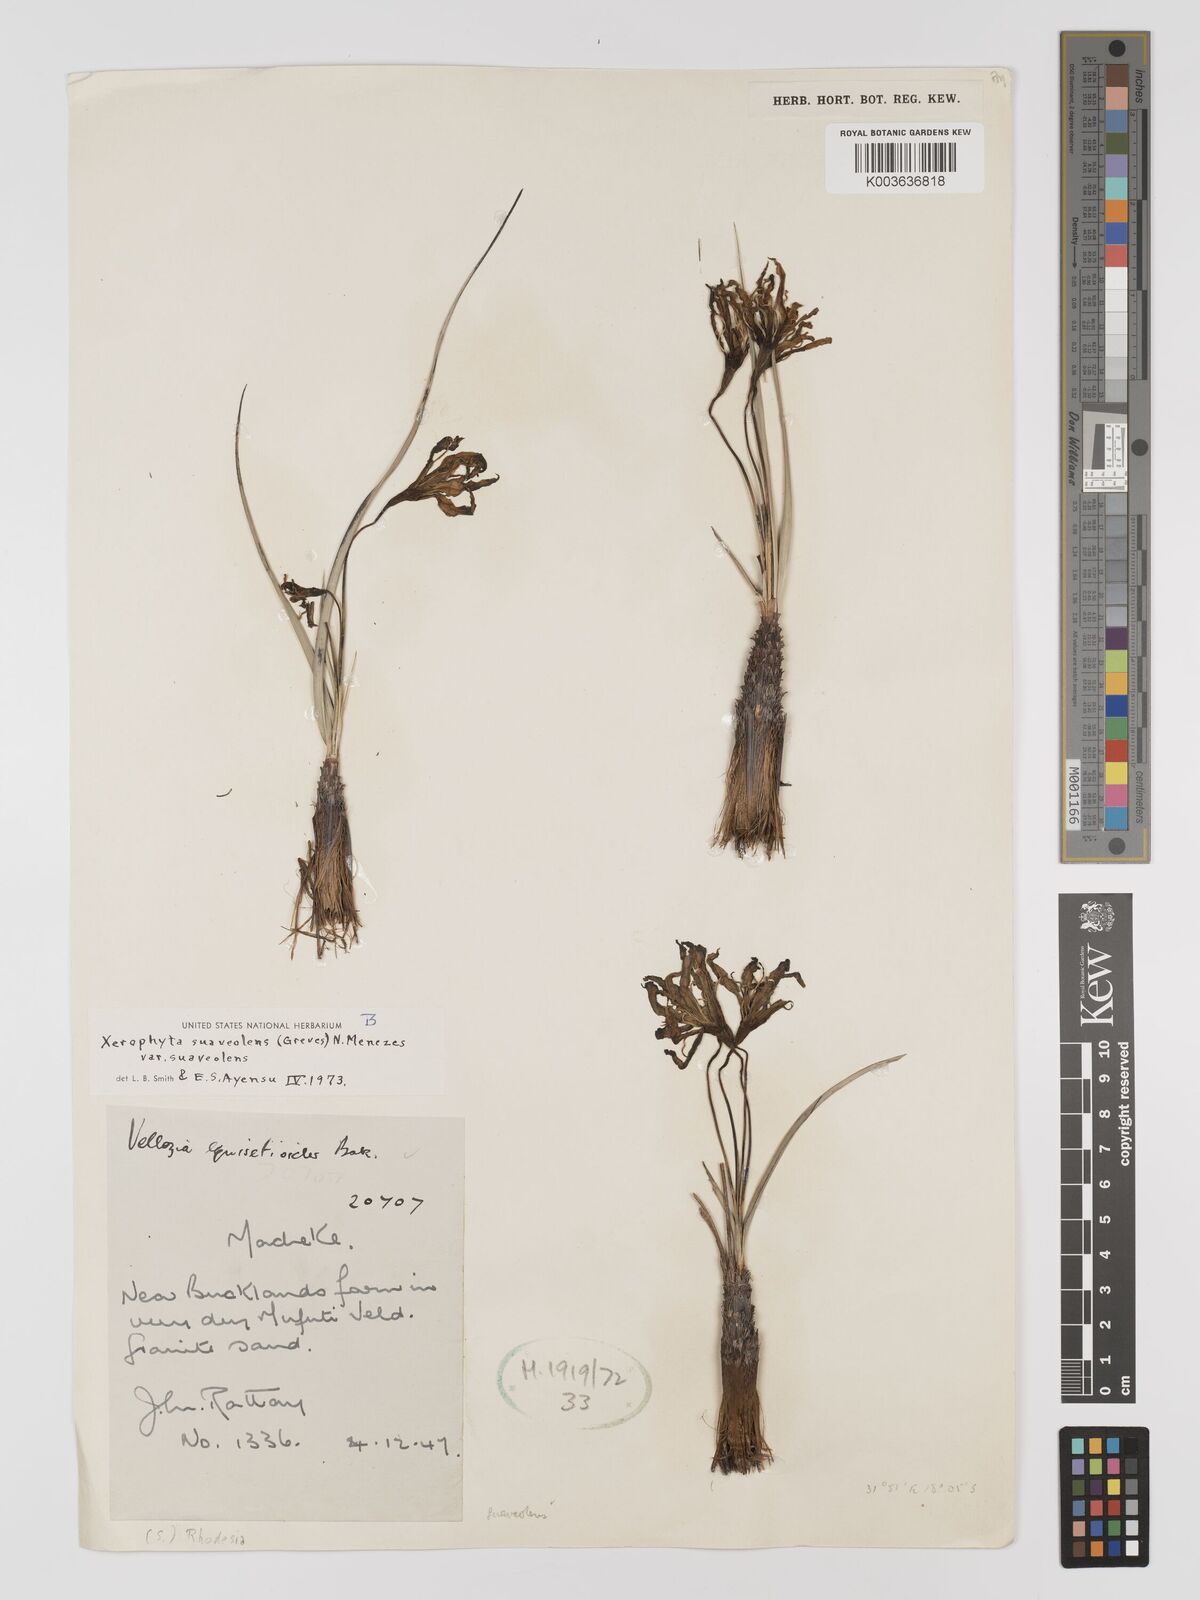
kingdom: Plantae
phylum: Tracheophyta
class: Liliopsida
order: Pandanales
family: Velloziaceae
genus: Xerophyta
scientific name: Xerophyta suaveolens
